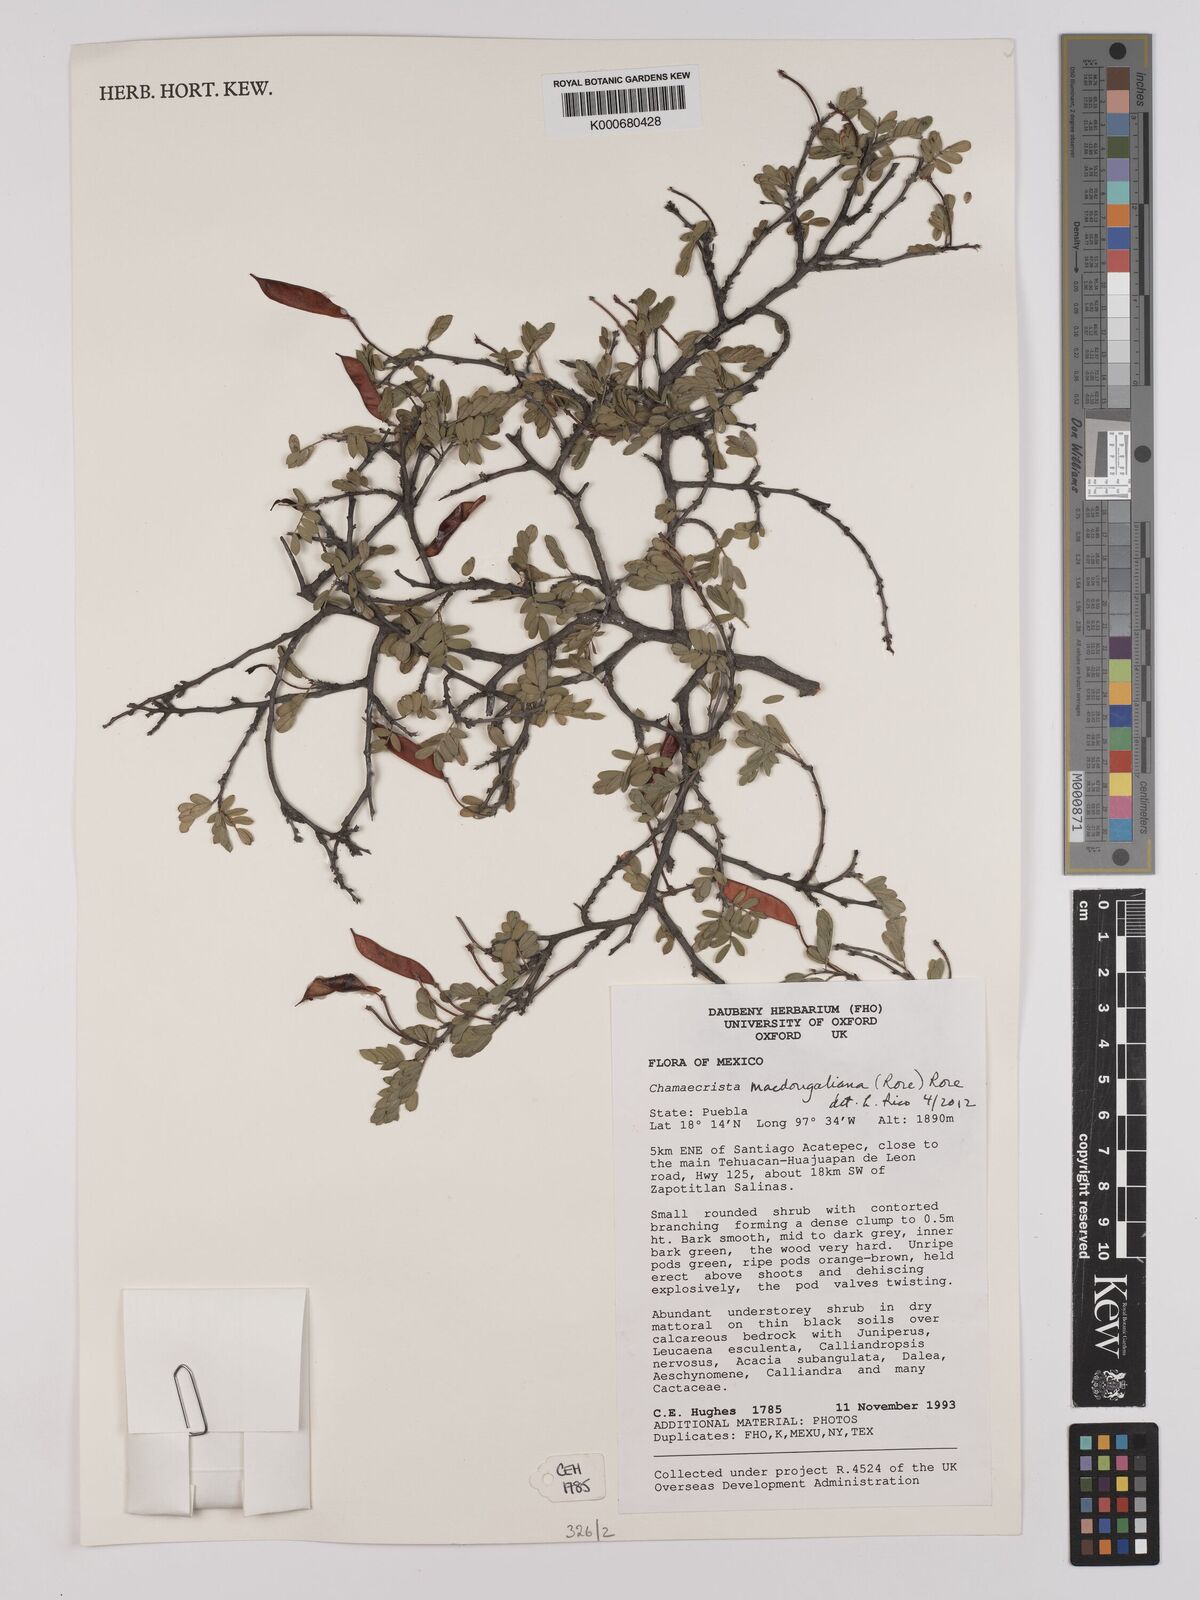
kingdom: Plantae
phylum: Tracheophyta
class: Magnoliopsida
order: Fabales
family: Fabaceae
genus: Chamaecrista
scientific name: Chamaecrista
